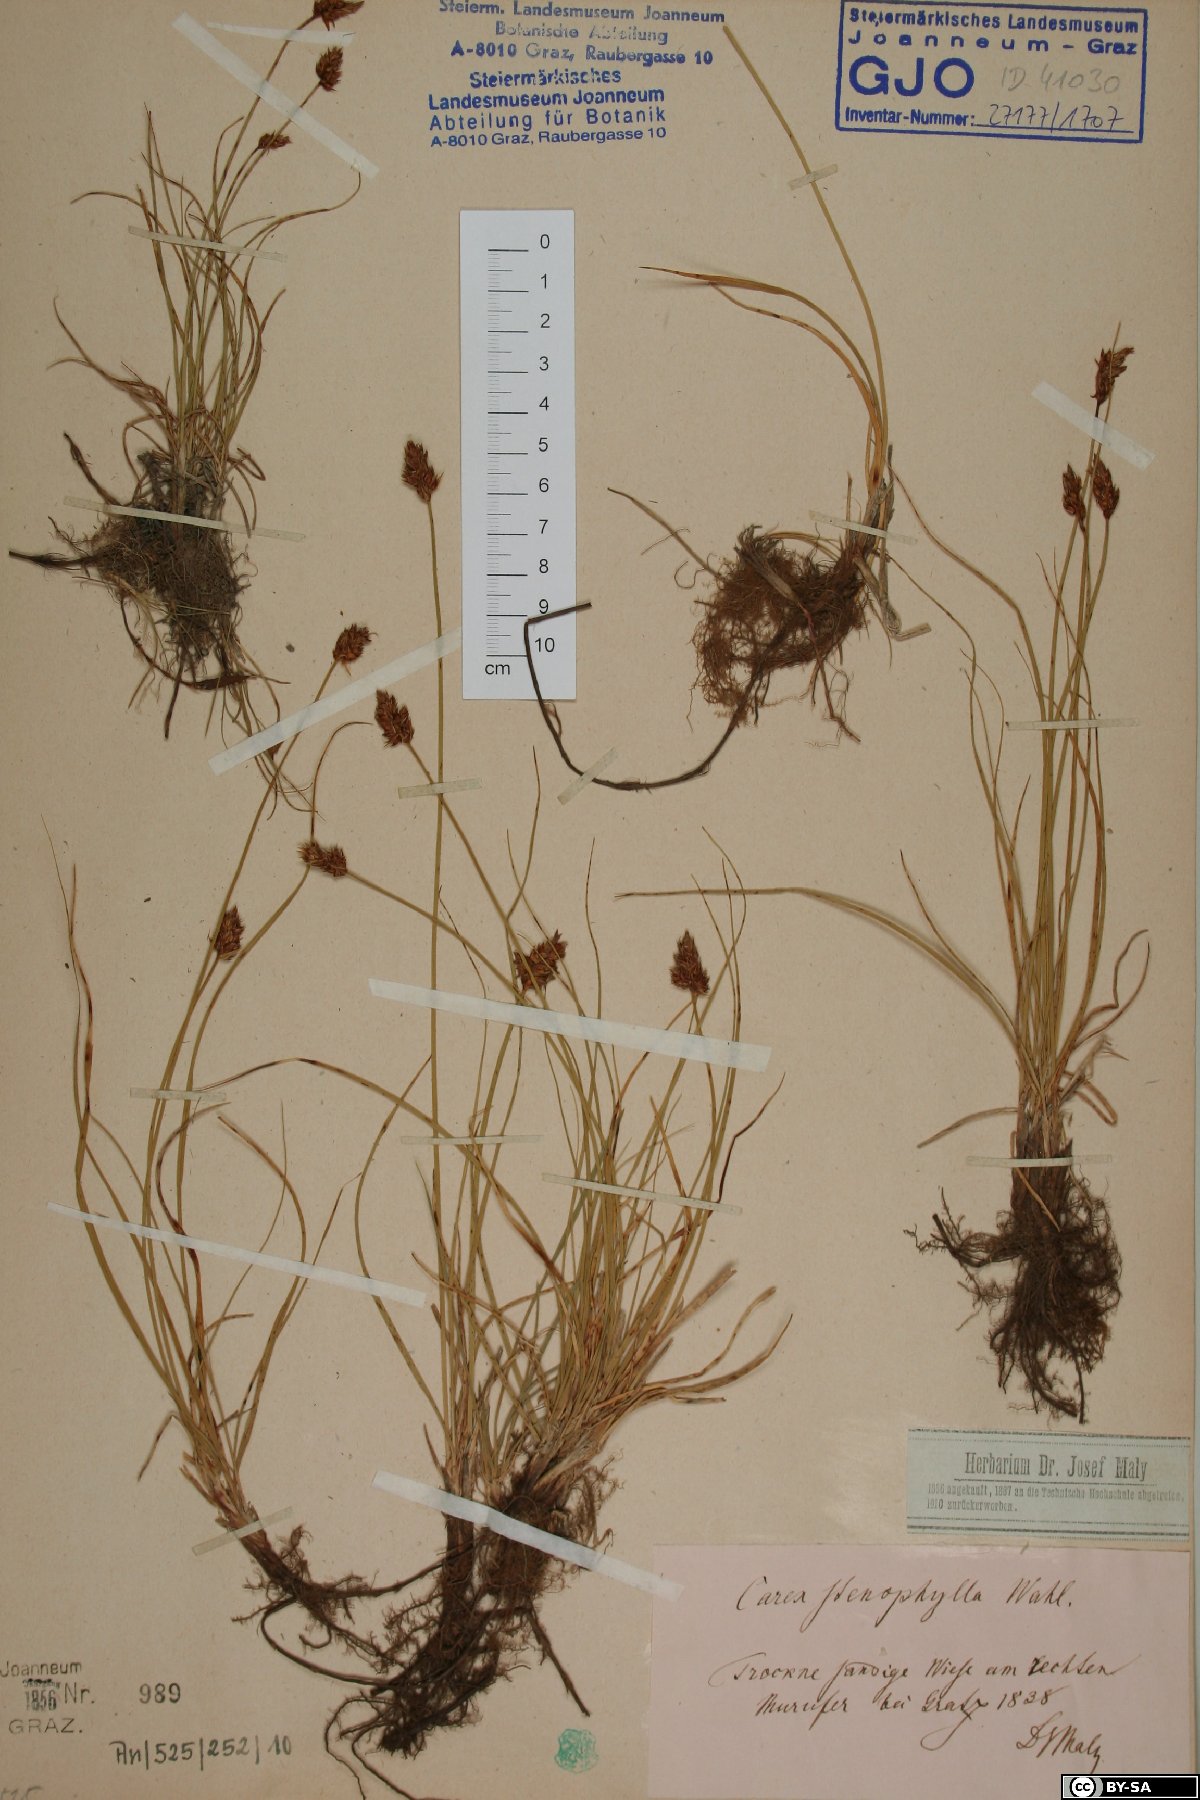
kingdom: Plantae
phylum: Tracheophyta
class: Liliopsida
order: Poales
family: Cyperaceae
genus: Carex
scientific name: Carex stenophylla
